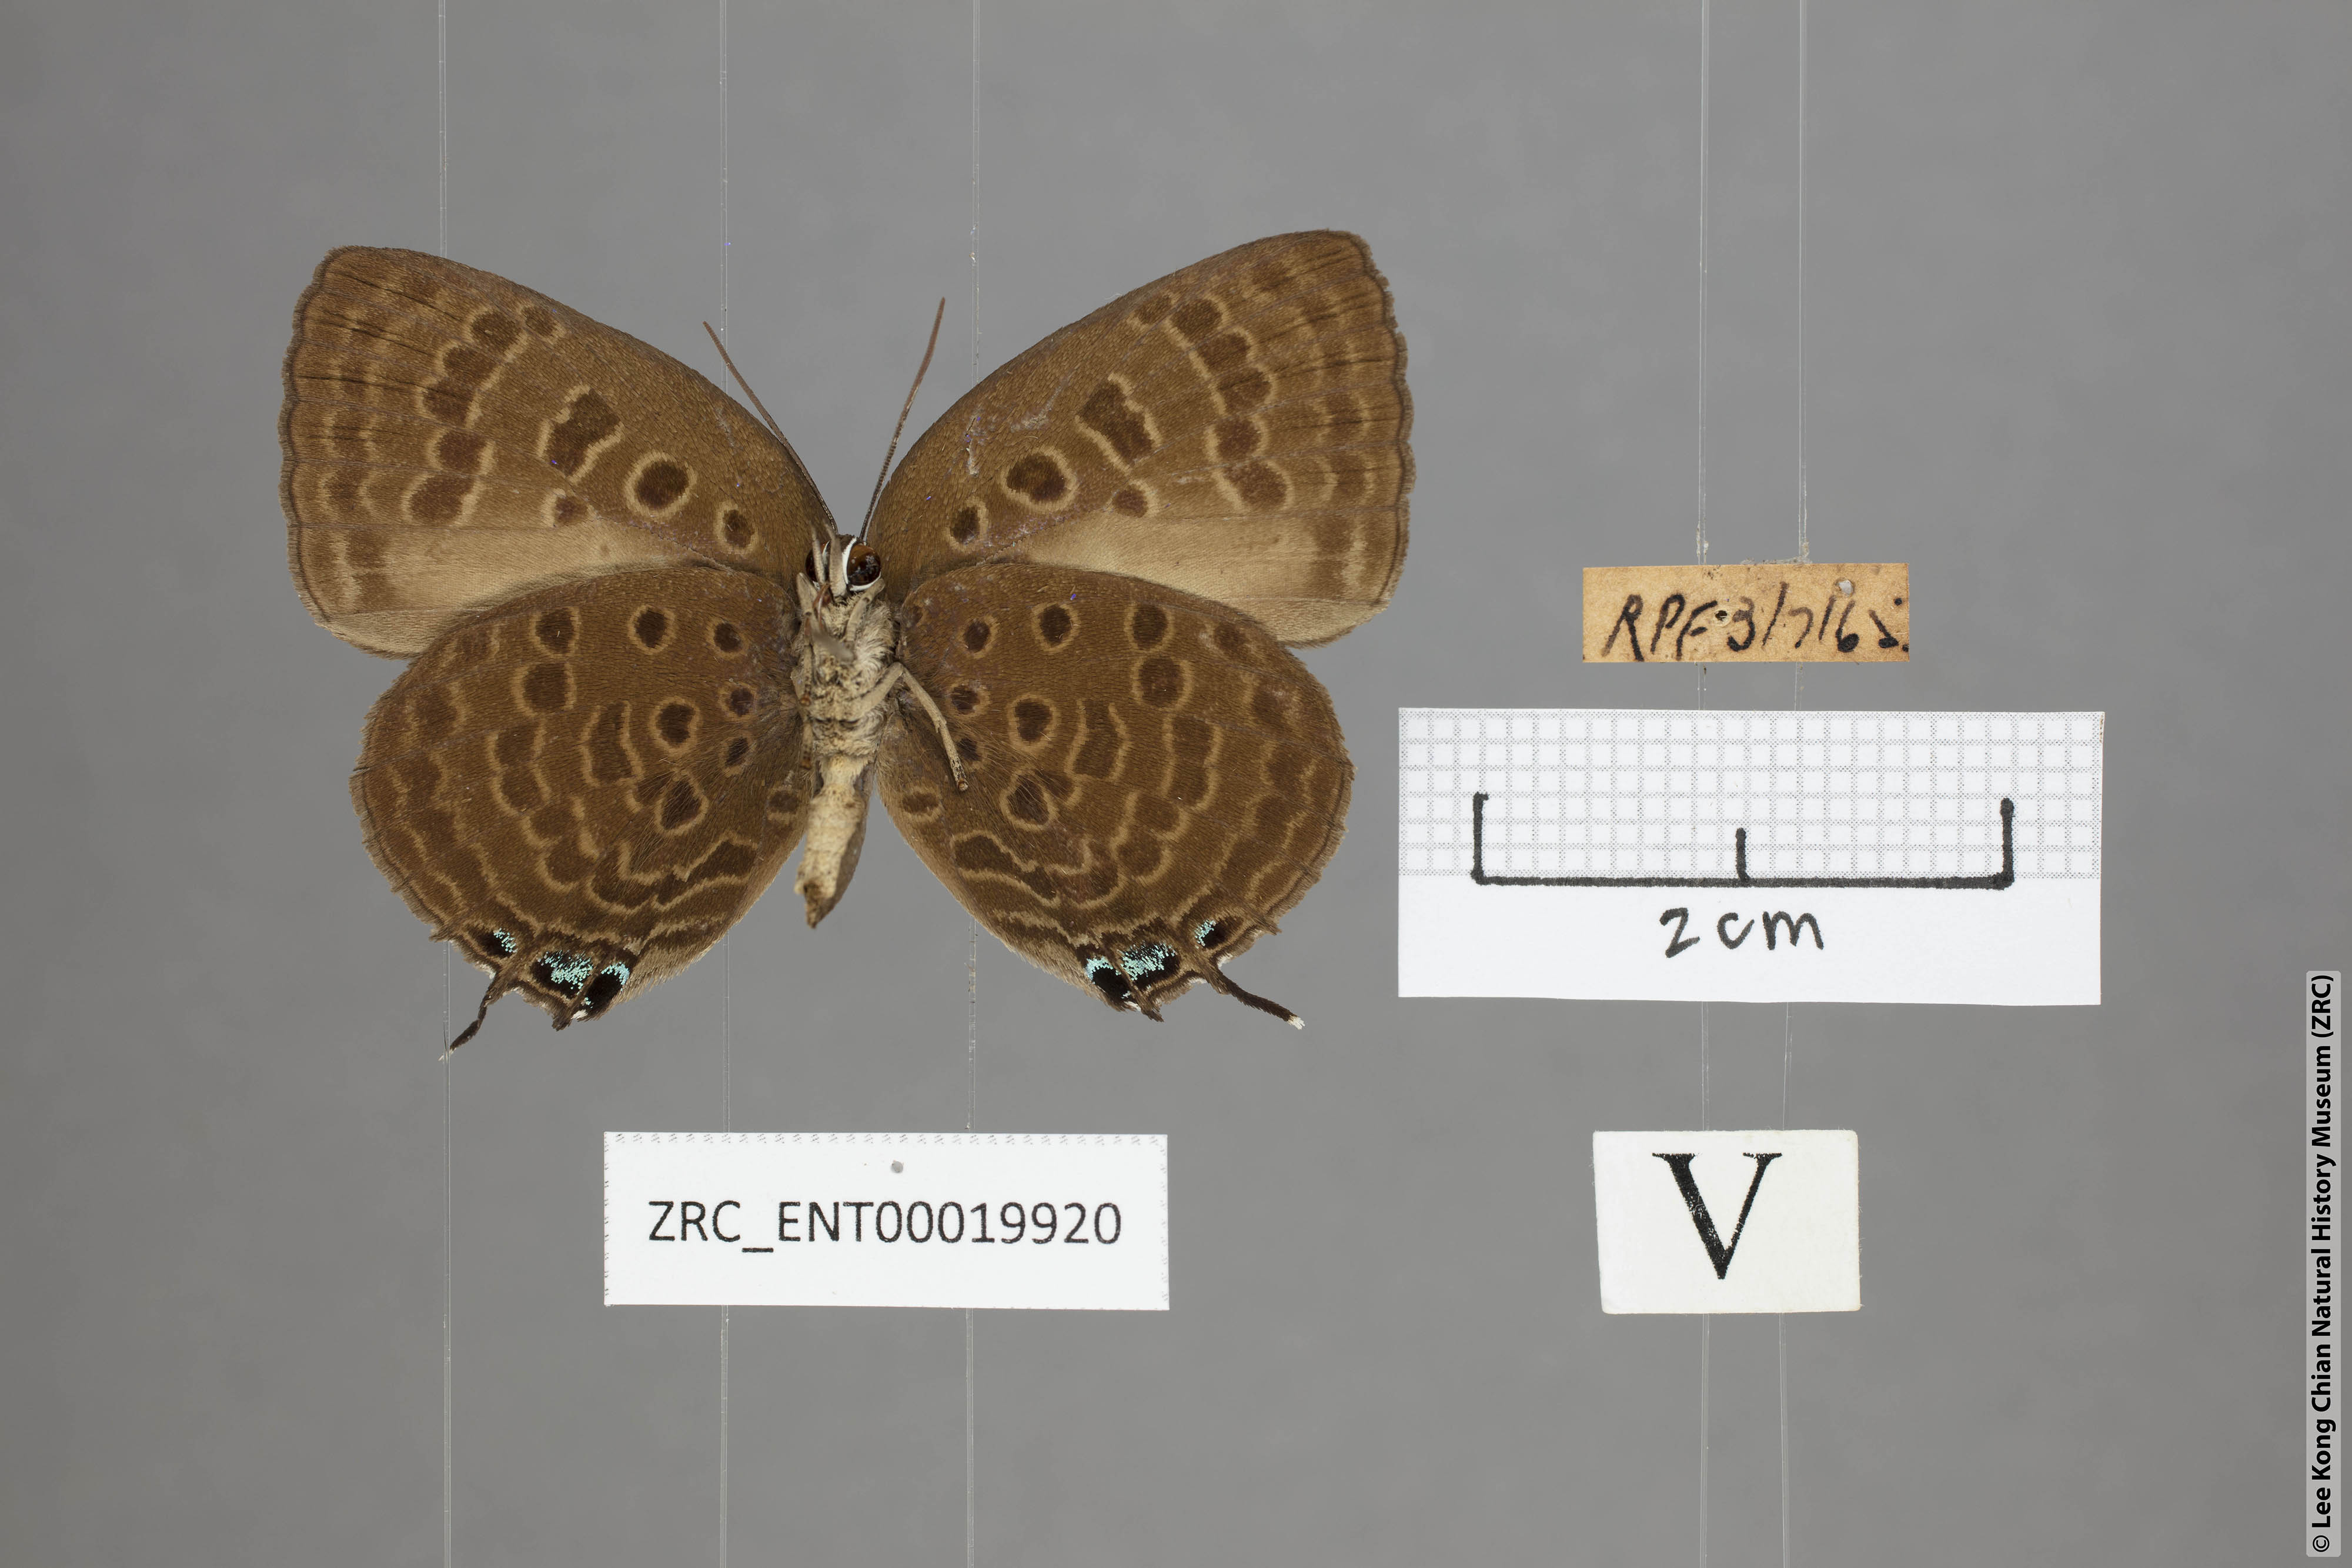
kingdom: Animalia
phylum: Arthropoda
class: Insecta
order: Lepidoptera
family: Lycaenidae
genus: Arhopala
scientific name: Arhopala vihara
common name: Large spotted oakblue
